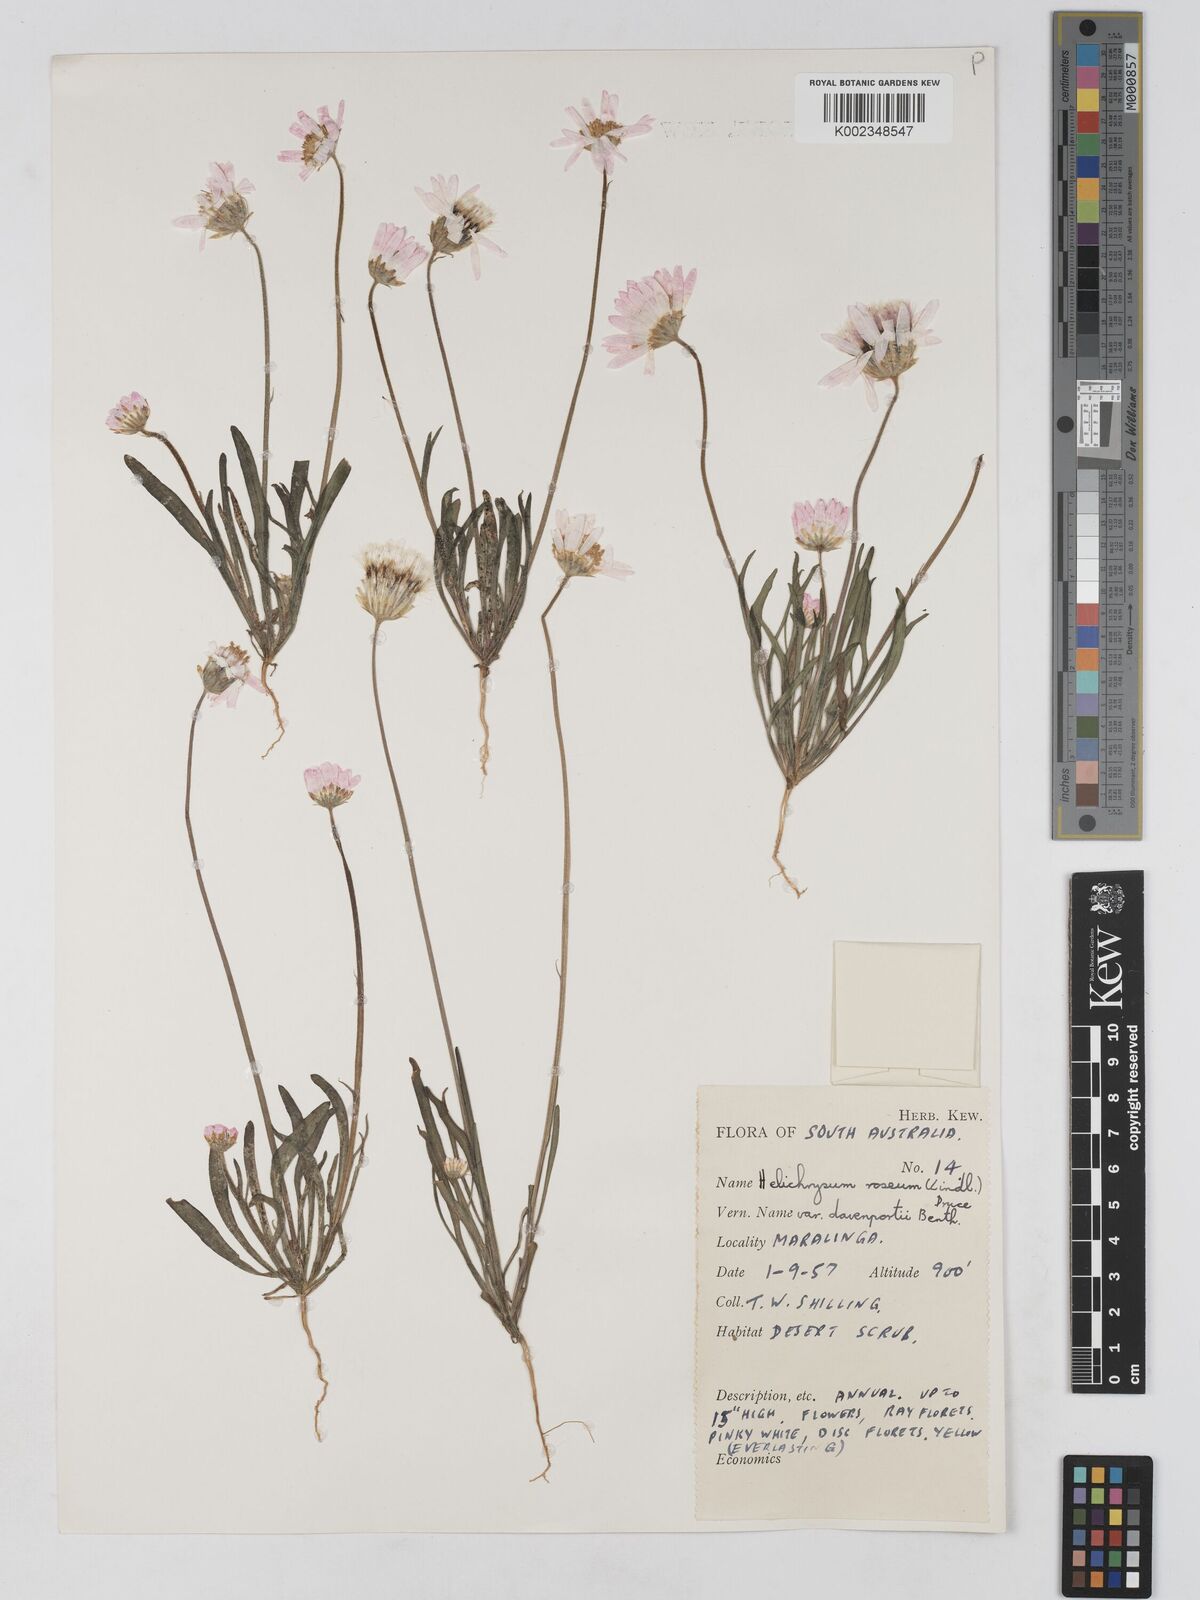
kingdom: Plantae
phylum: Tracheophyta
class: Magnoliopsida
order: Asterales
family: Asteraceae
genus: Lawrencella
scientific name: Lawrencella davenportii
